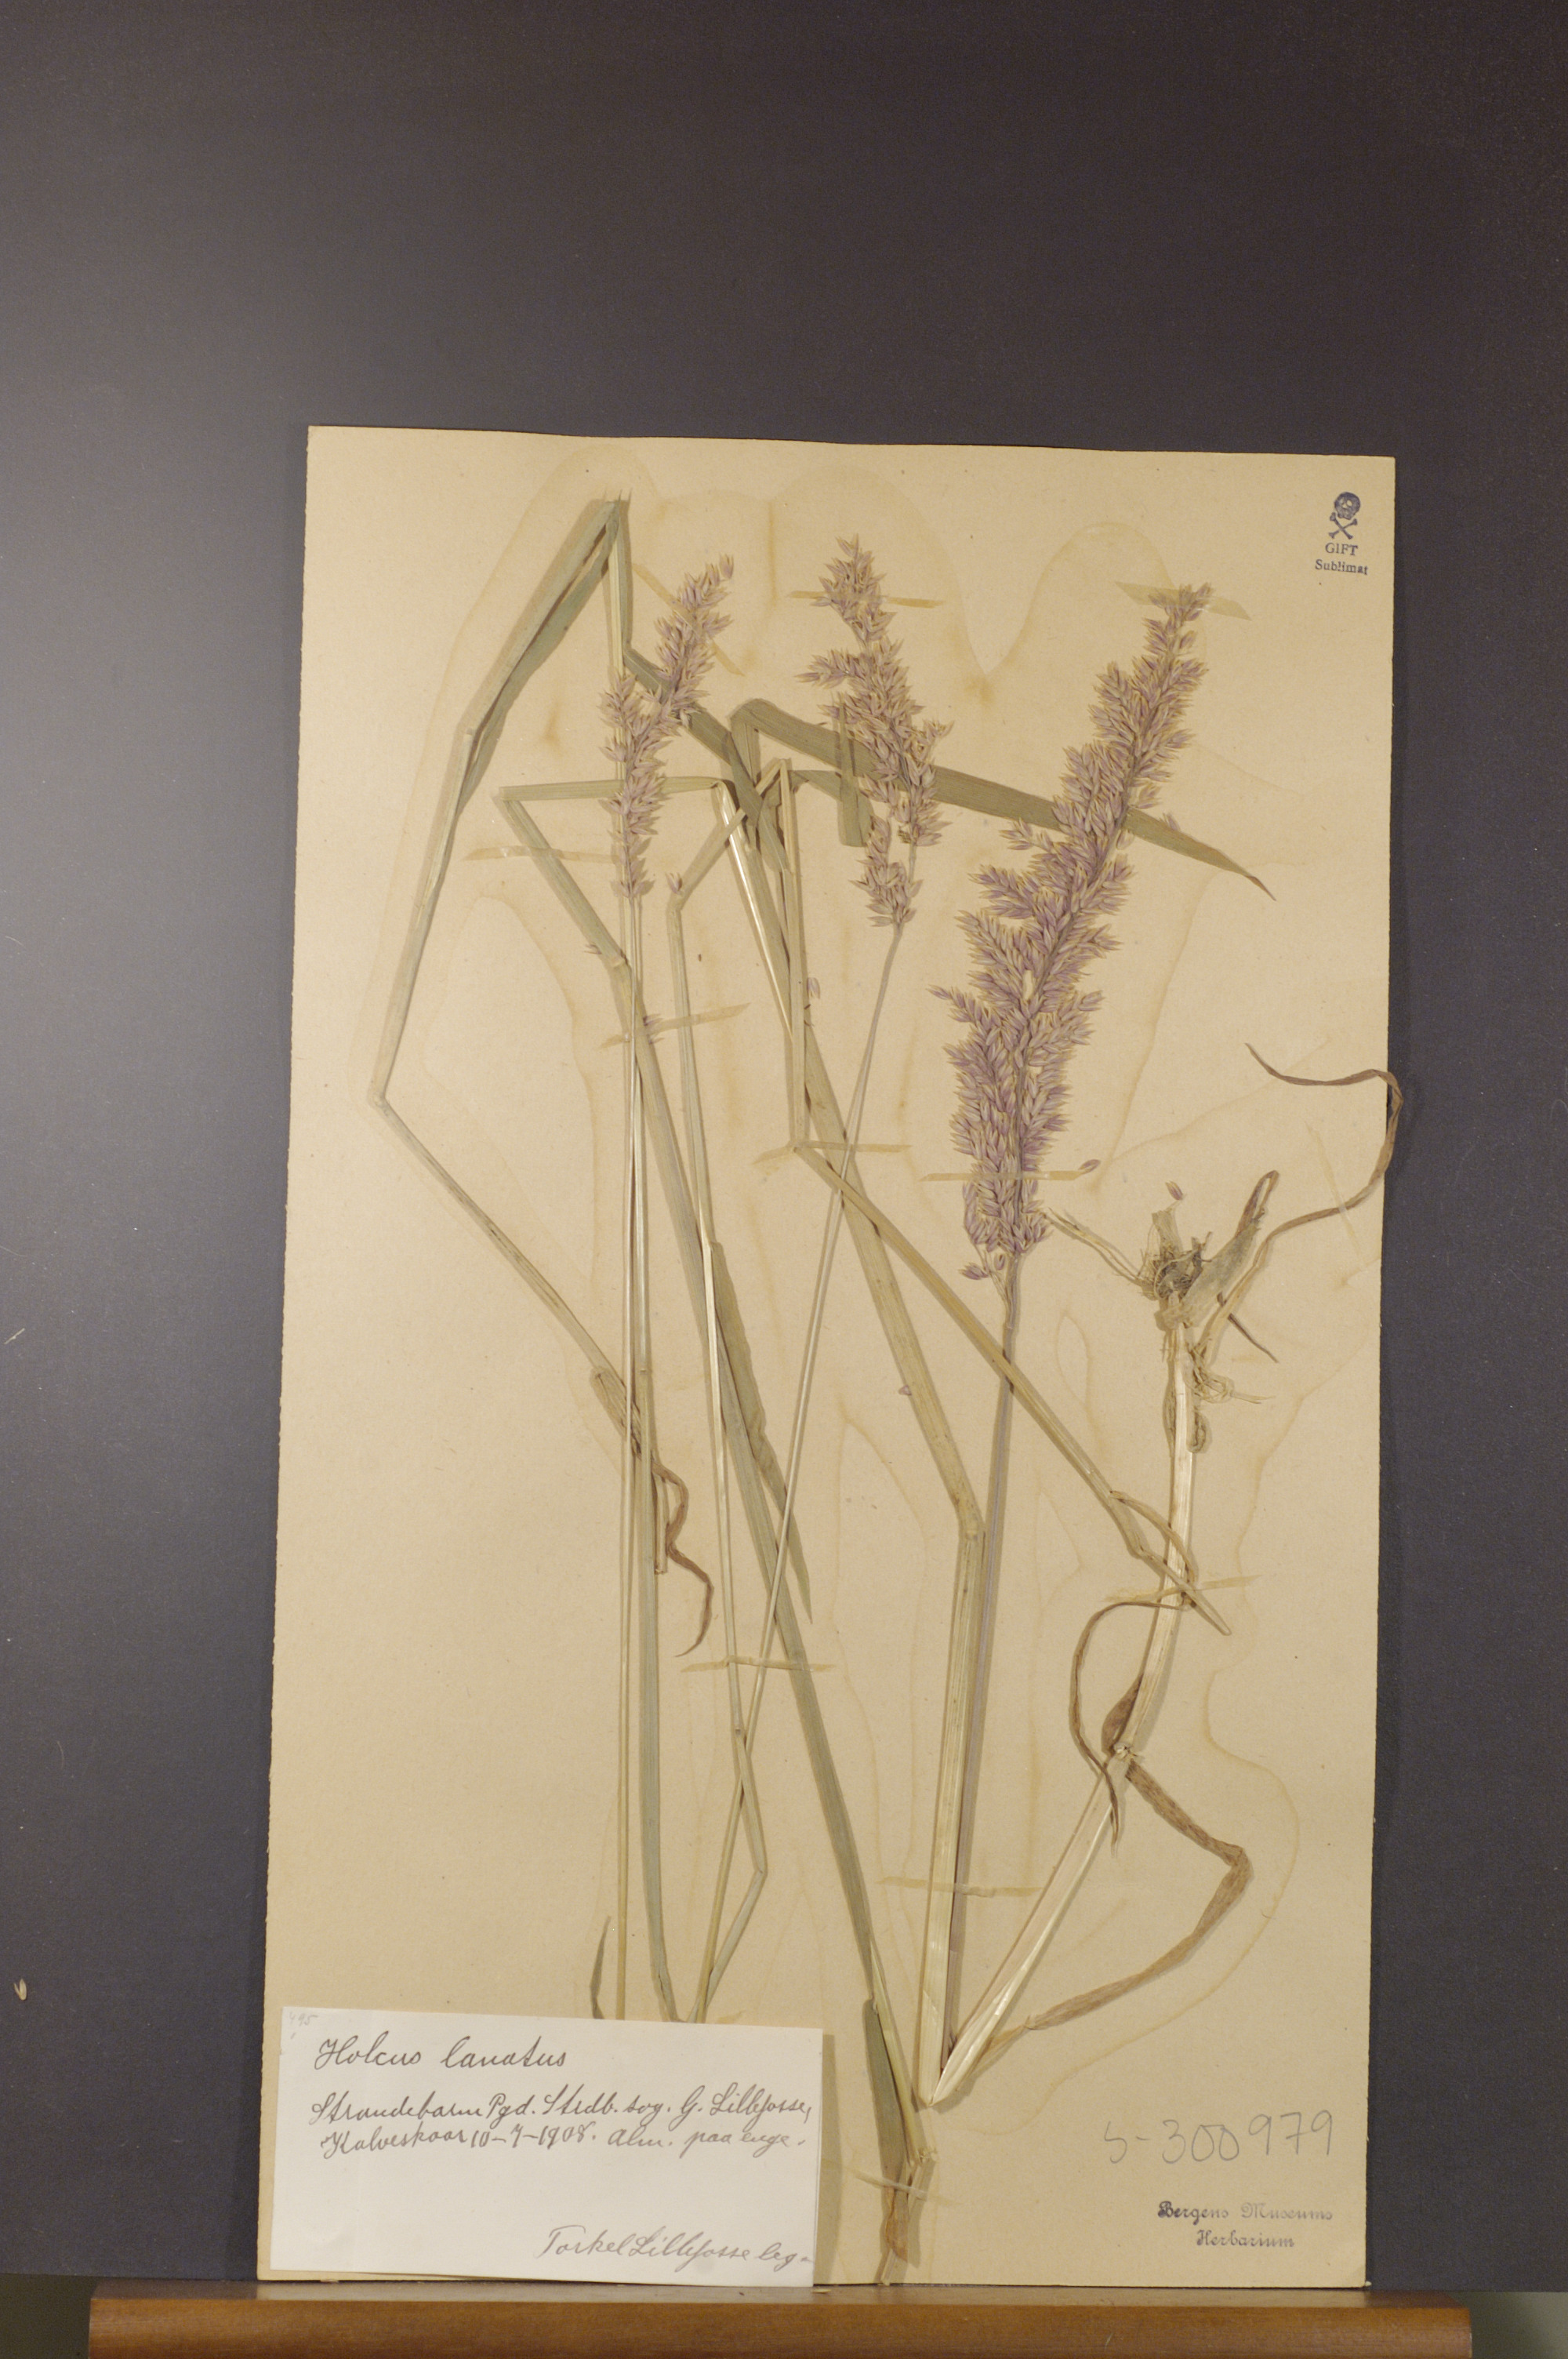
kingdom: Plantae
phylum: Tracheophyta
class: Liliopsida
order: Poales
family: Poaceae
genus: Holcus
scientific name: Holcus lanatus
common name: Yorkshire-fog
